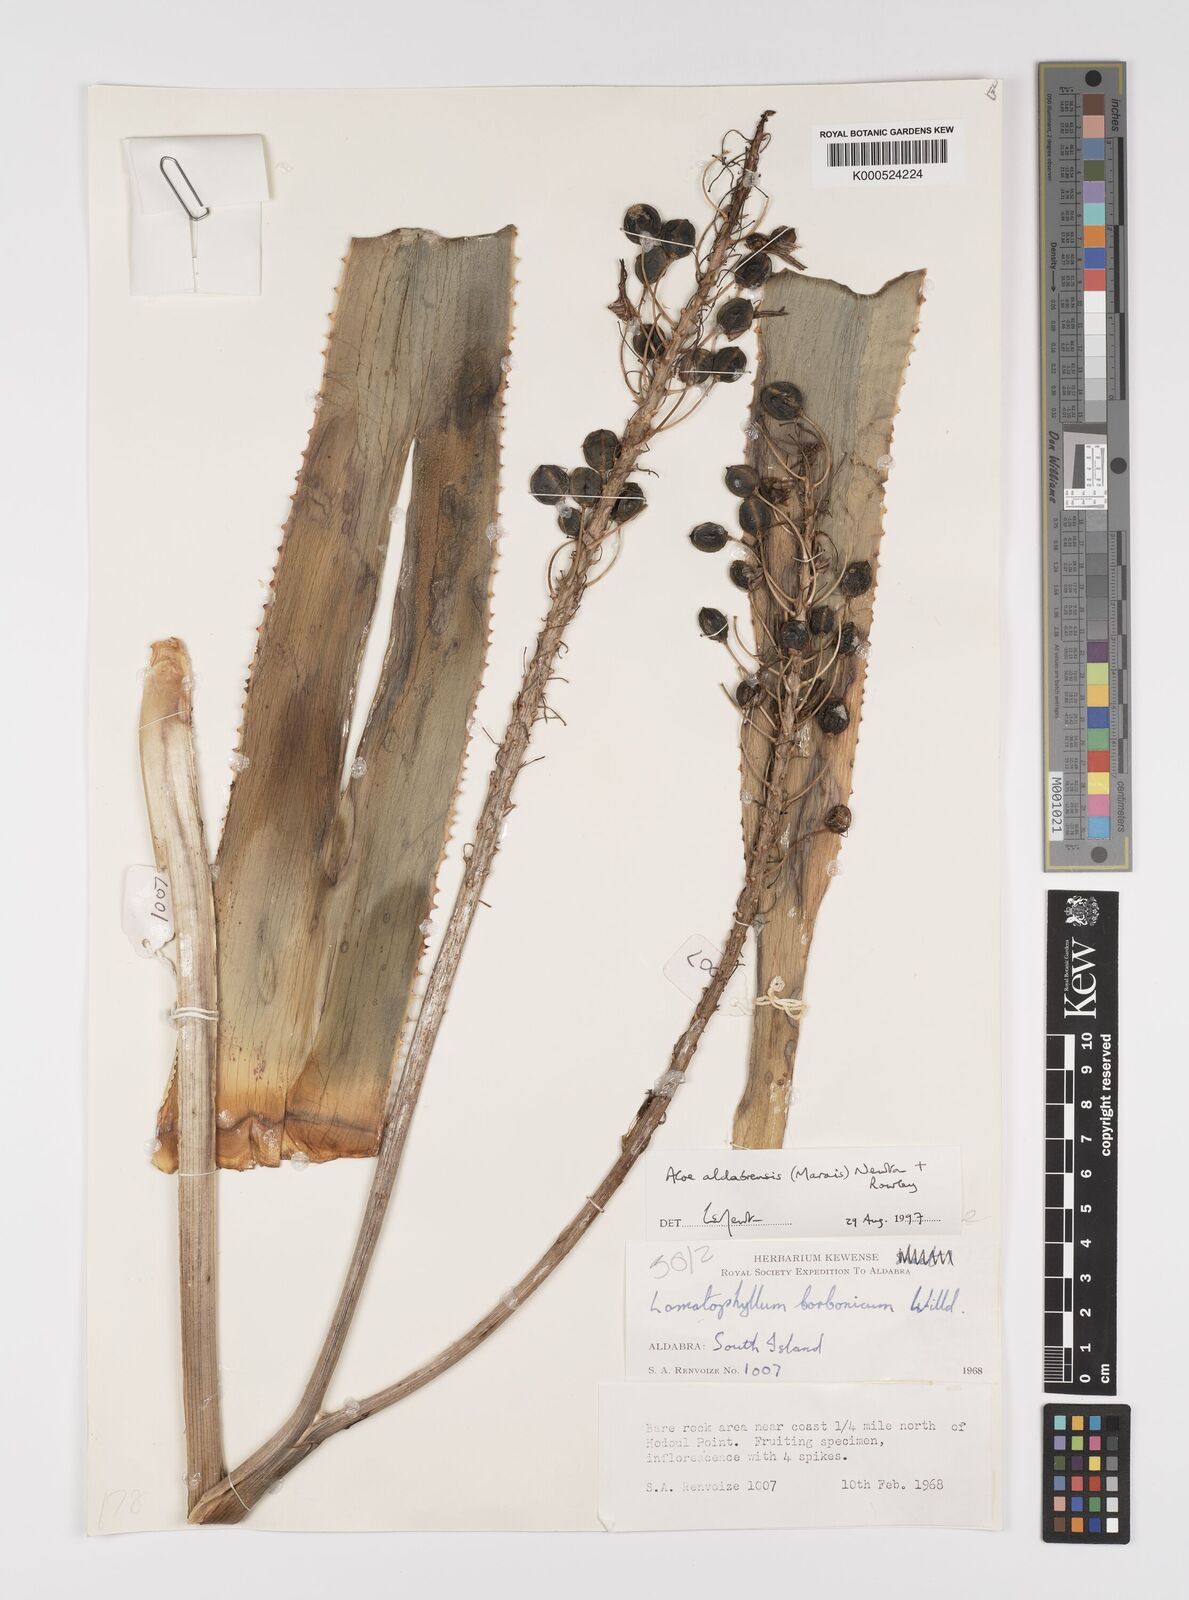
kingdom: Plantae
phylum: Tracheophyta
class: Liliopsida
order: Asparagales
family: Asphodelaceae
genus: Aloe
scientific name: Aloe aldabrensis
